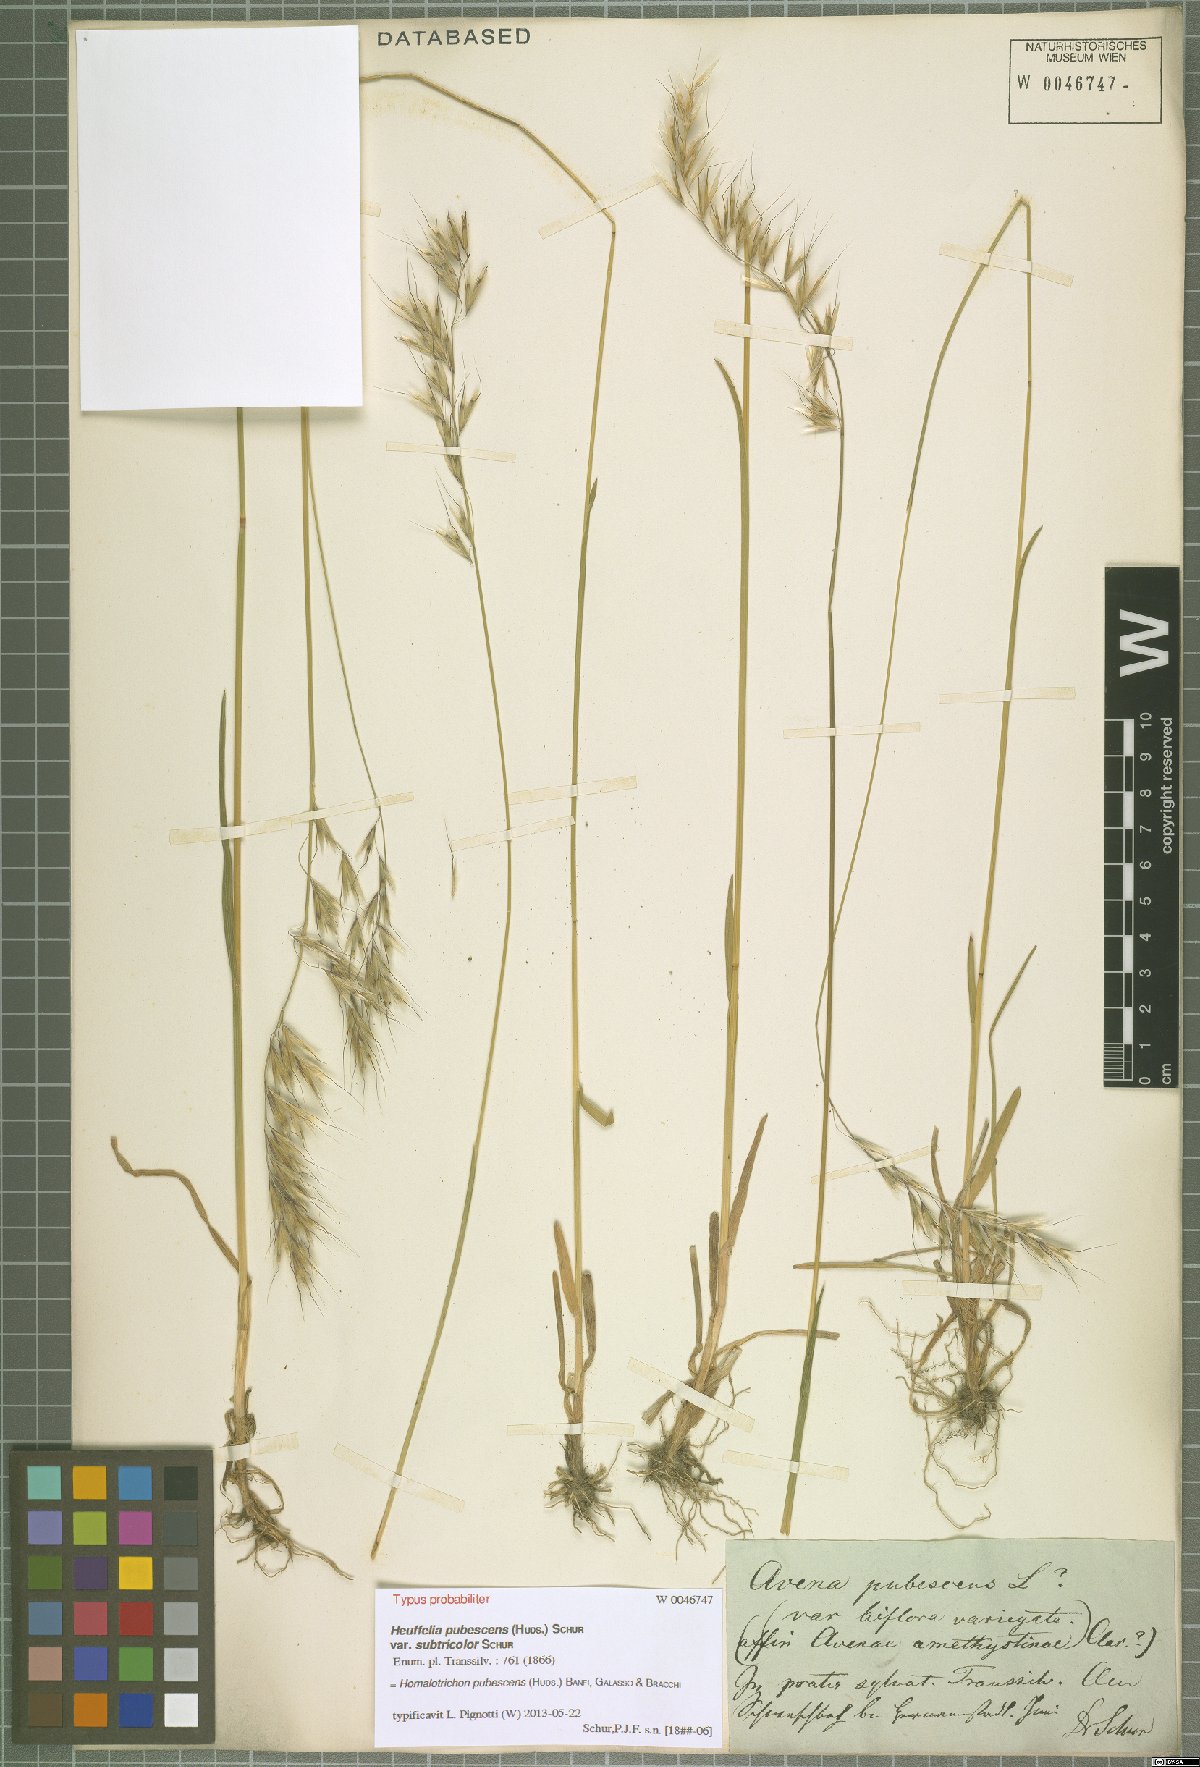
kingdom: Plantae
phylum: Tracheophyta
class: Liliopsida
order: Poales
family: Poaceae
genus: Avenula
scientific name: Avenula pubescens
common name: Downy alpine oatgrass
